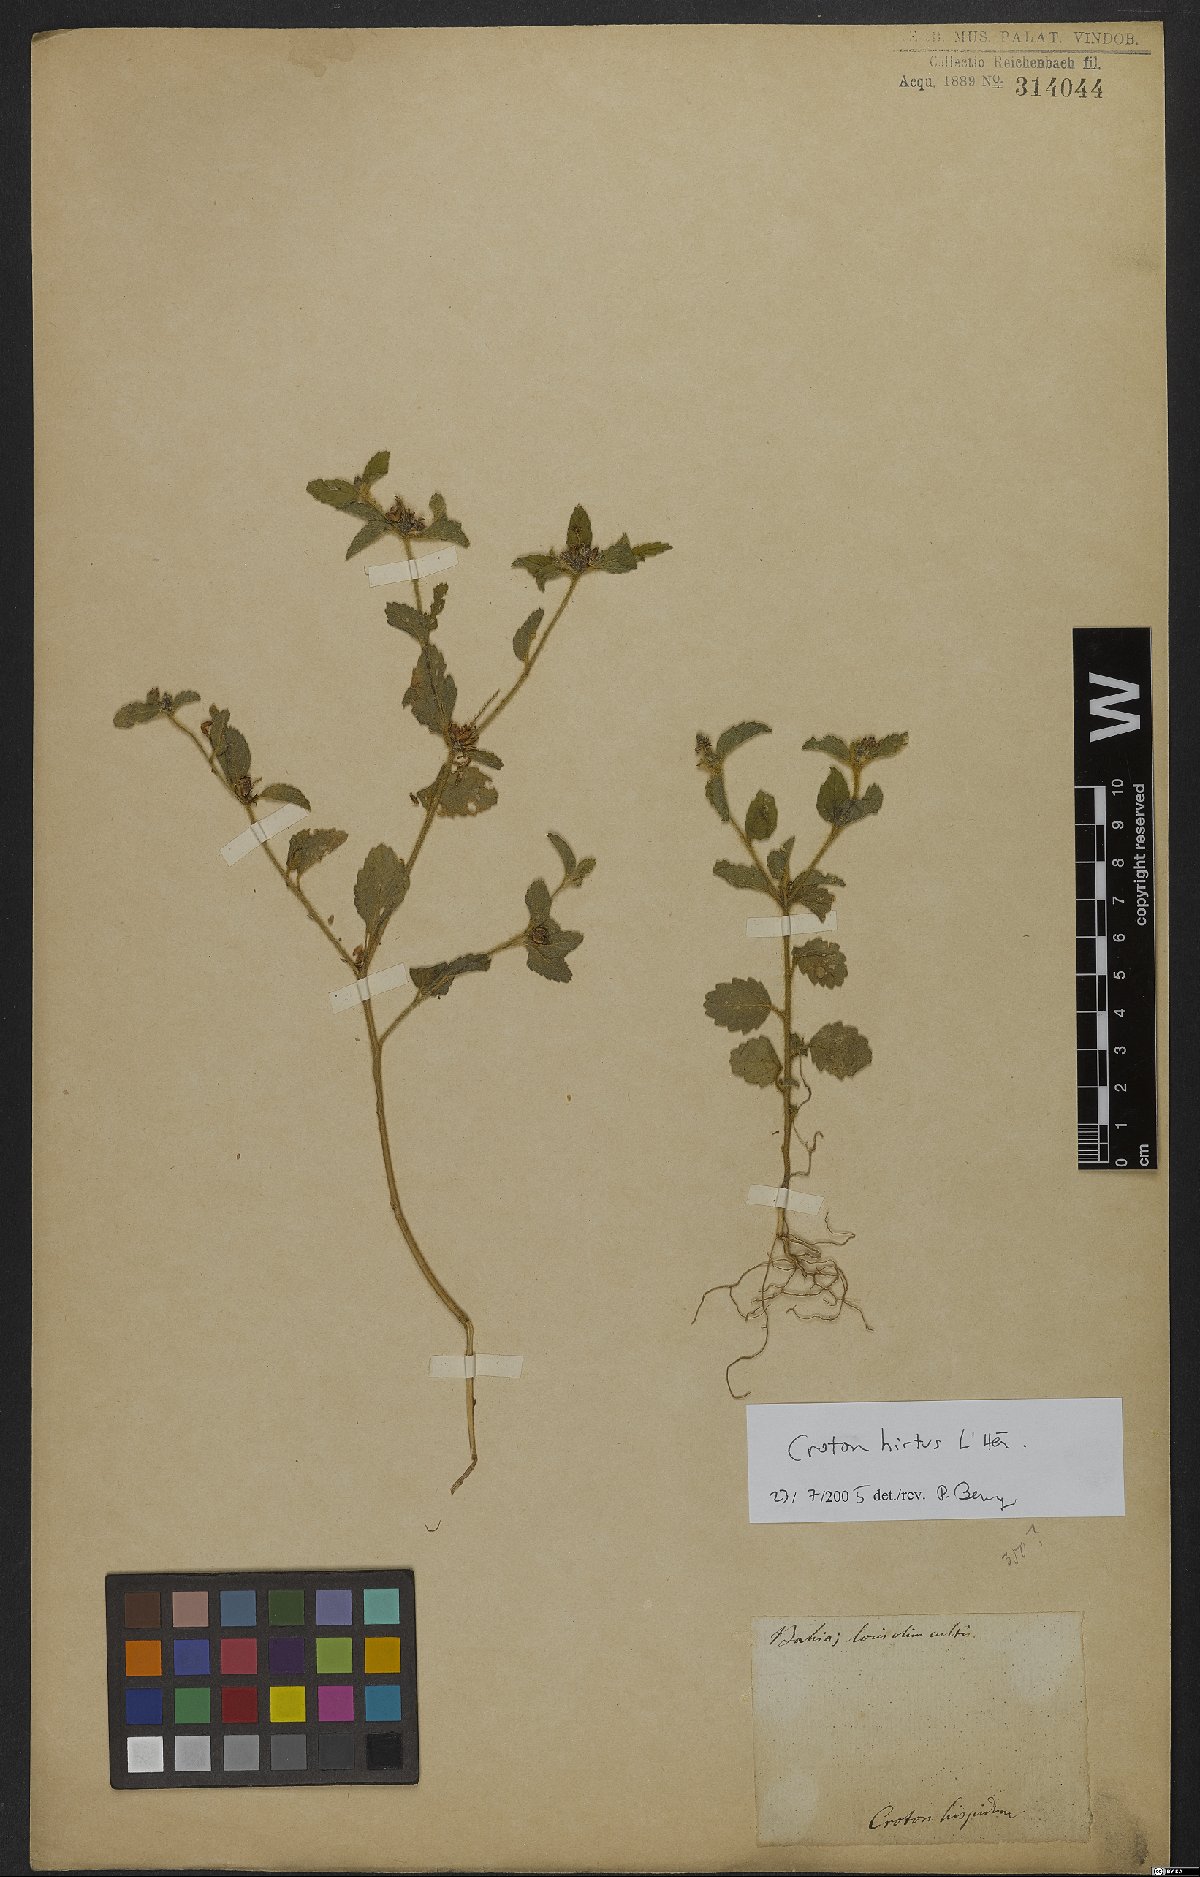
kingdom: Plantae
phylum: Tracheophyta
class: Magnoliopsida
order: Malpighiales
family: Euphorbiaceae
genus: Croton
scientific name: Croton hirtus
